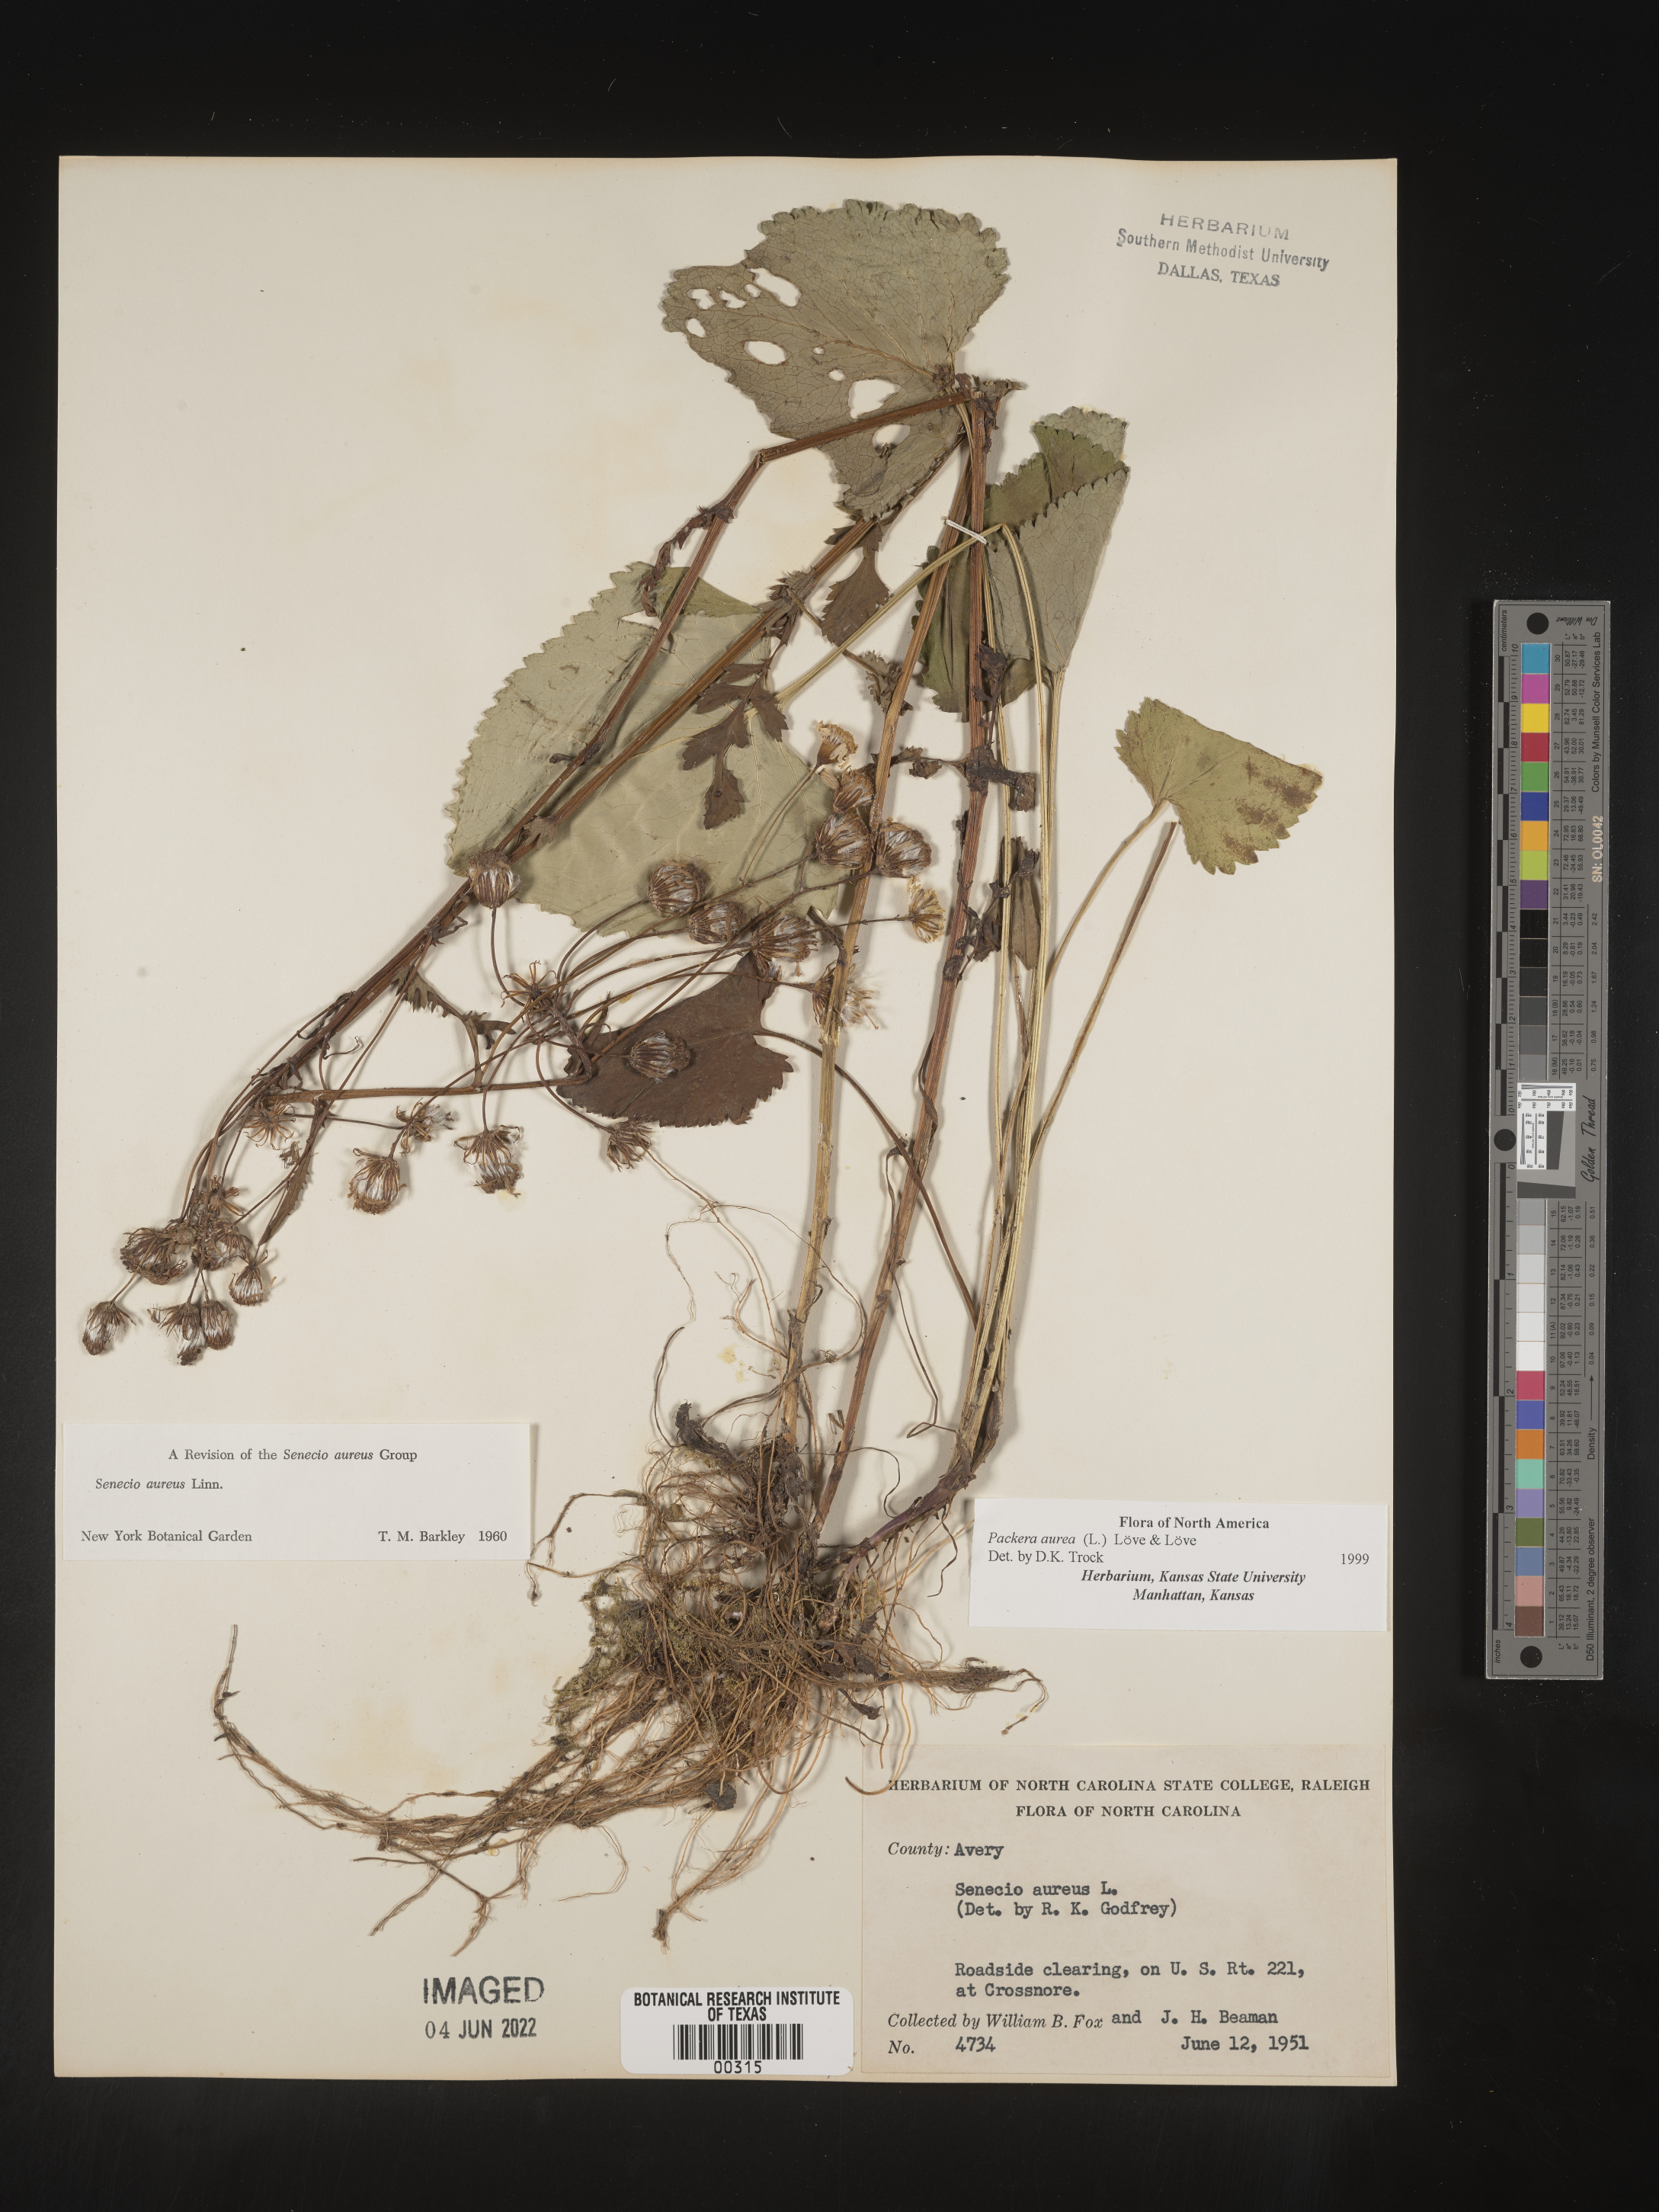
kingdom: Plantae
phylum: Tracheophyta
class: Magnoliopsida
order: Asterales
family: Asteraceae
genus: Packera
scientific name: Packera aurea
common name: Golden groundsel
